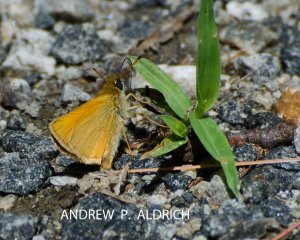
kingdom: Animalia
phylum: Arthropoda
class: Insecta
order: Lepidoptera
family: Hesperiidae
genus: Thymelicus
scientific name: Thymelicus lineola
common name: European Skipper
